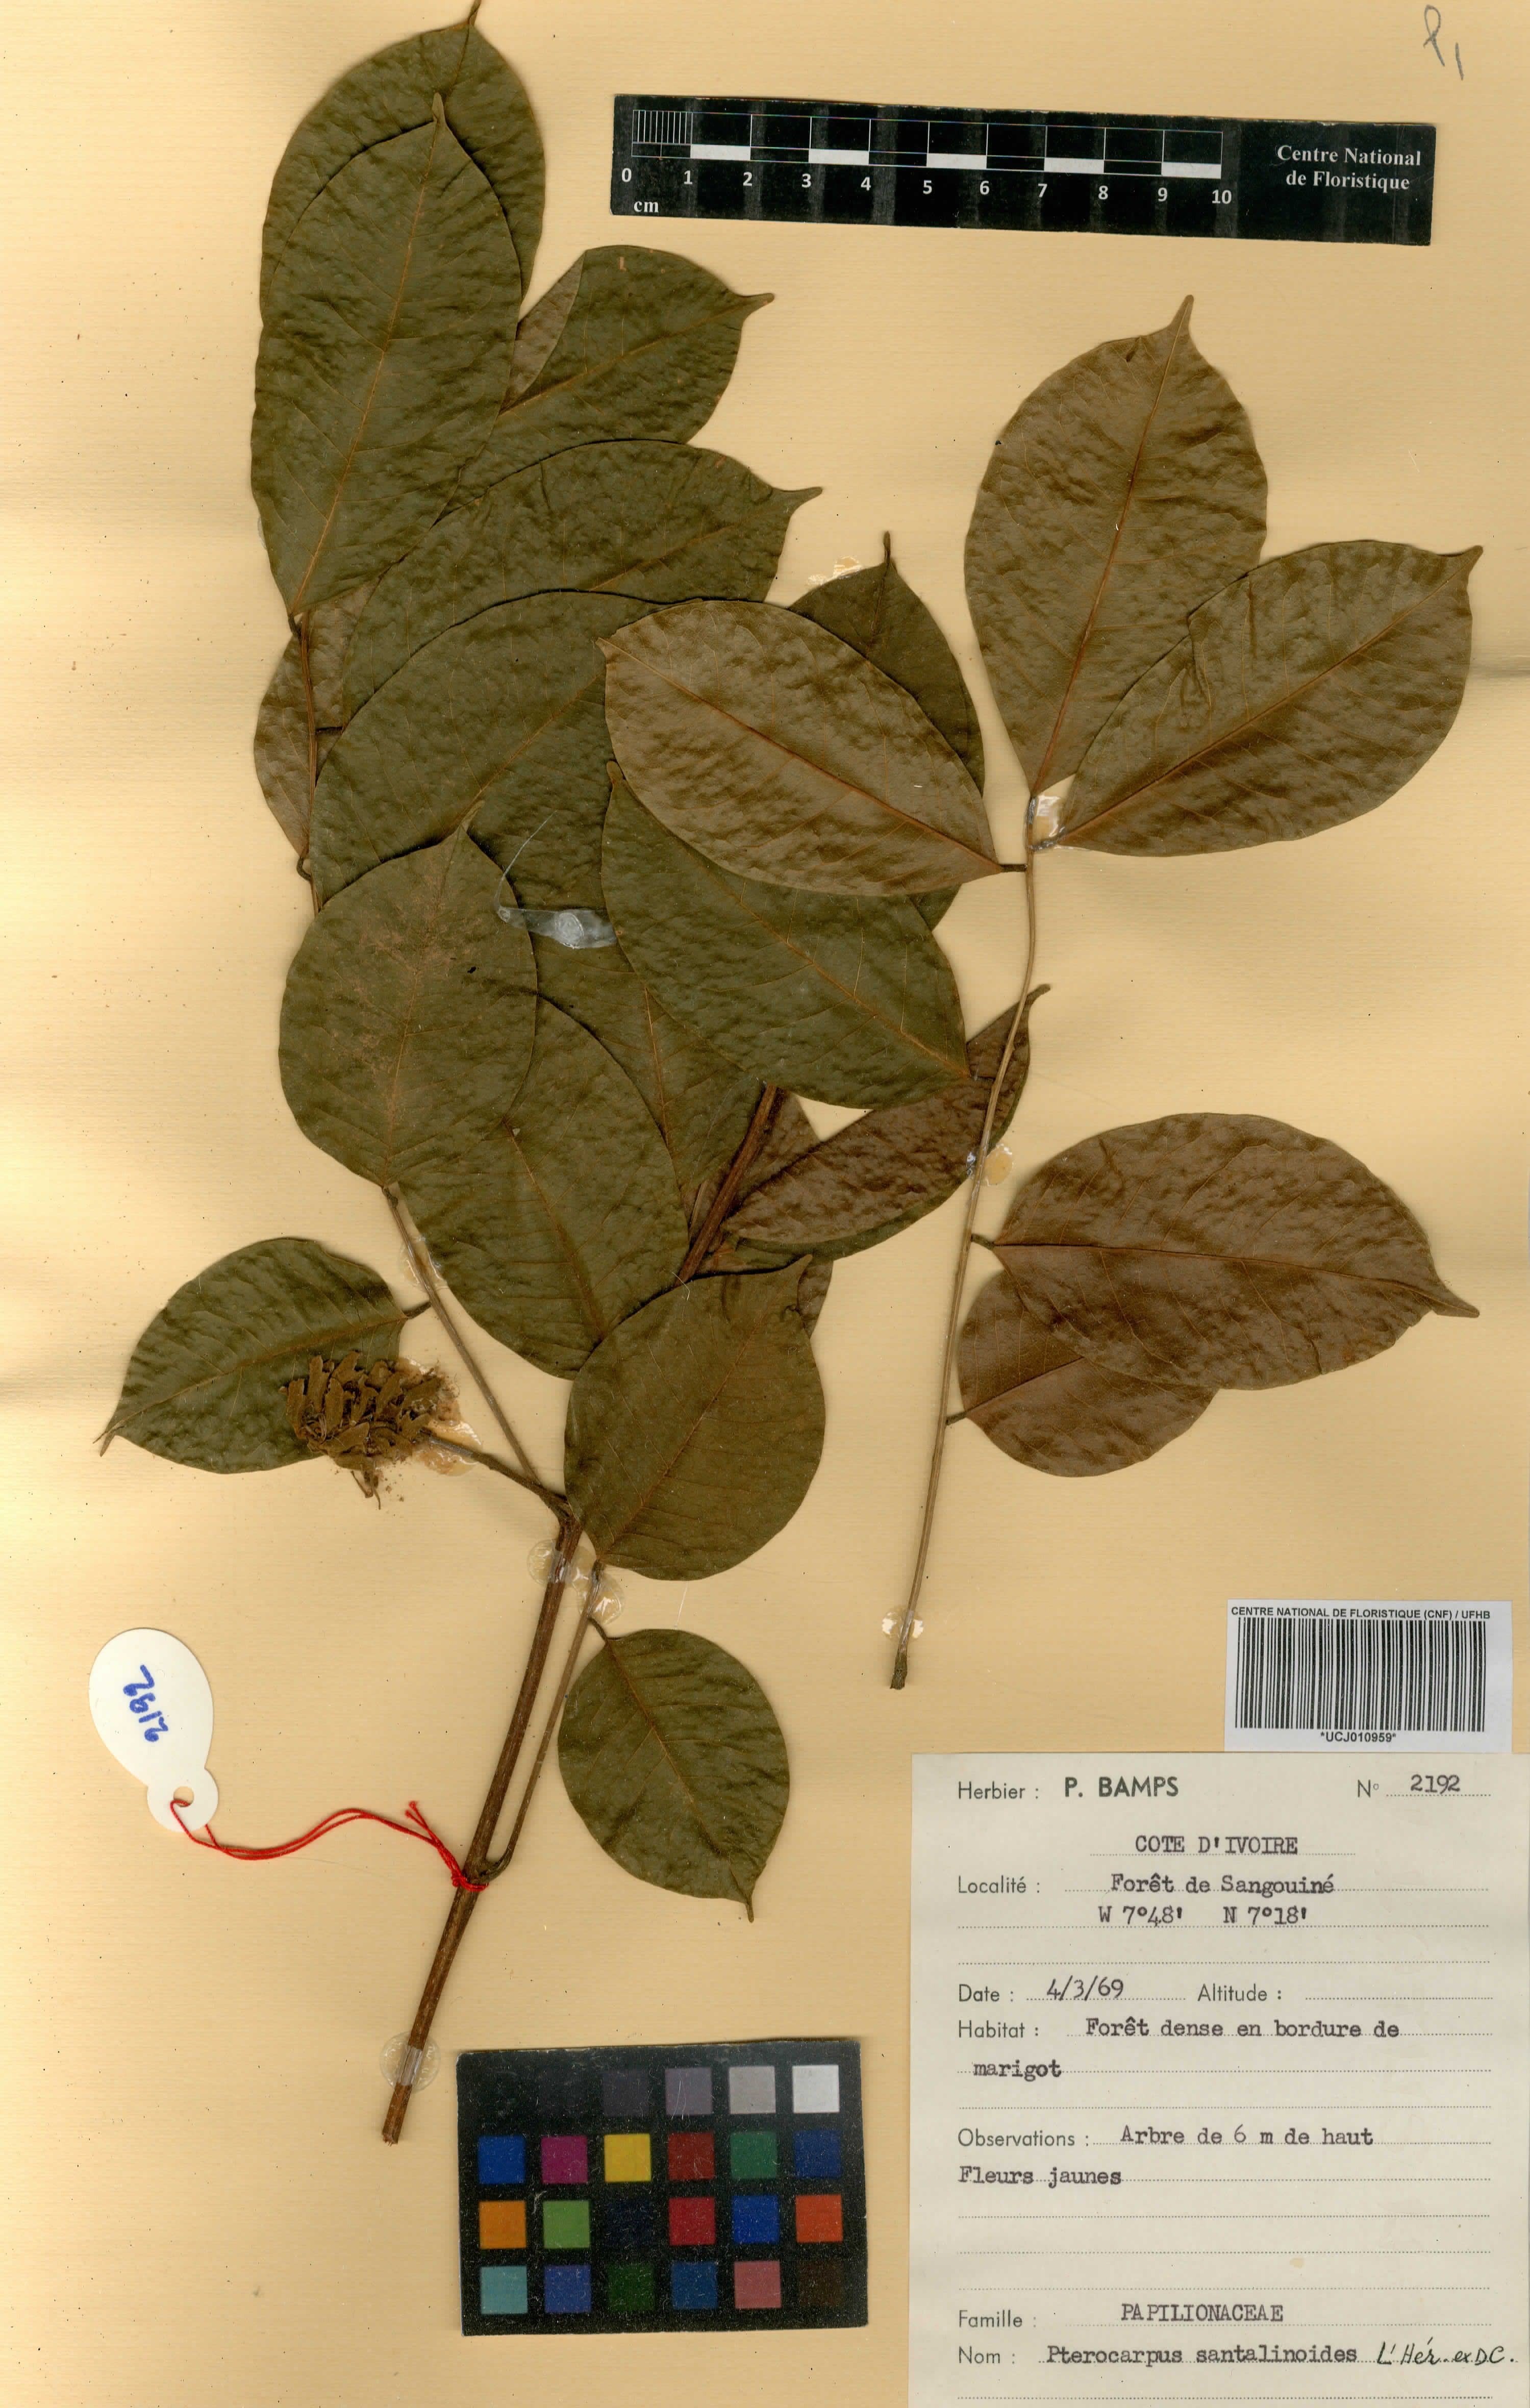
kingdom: Plantae
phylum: Tracheophyta
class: Magnoliopsida
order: Fabales
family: Fabaceae
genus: Pterocarpus
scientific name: Pterocarpus santalinoides
